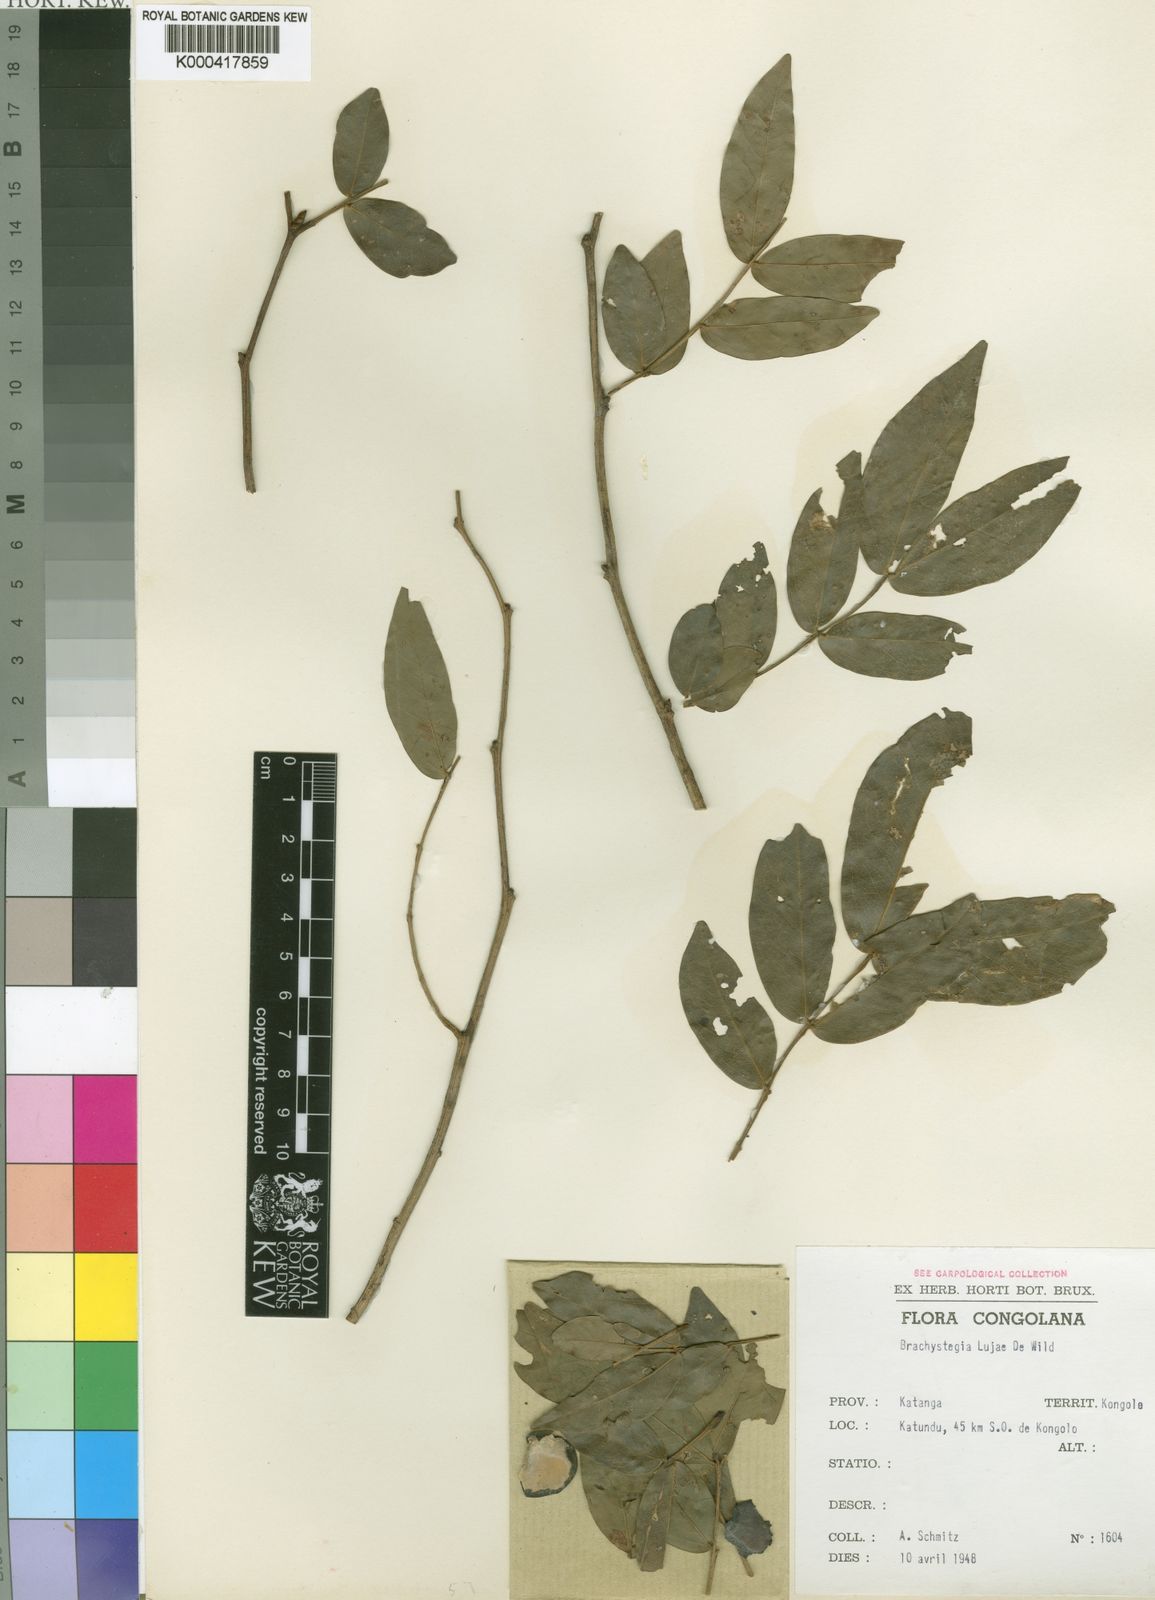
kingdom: Plantae
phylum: Tracheophyta
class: Magnoliopsida
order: Fabales
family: Fabaceae
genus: Brachystegia
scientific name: Brachystegia
